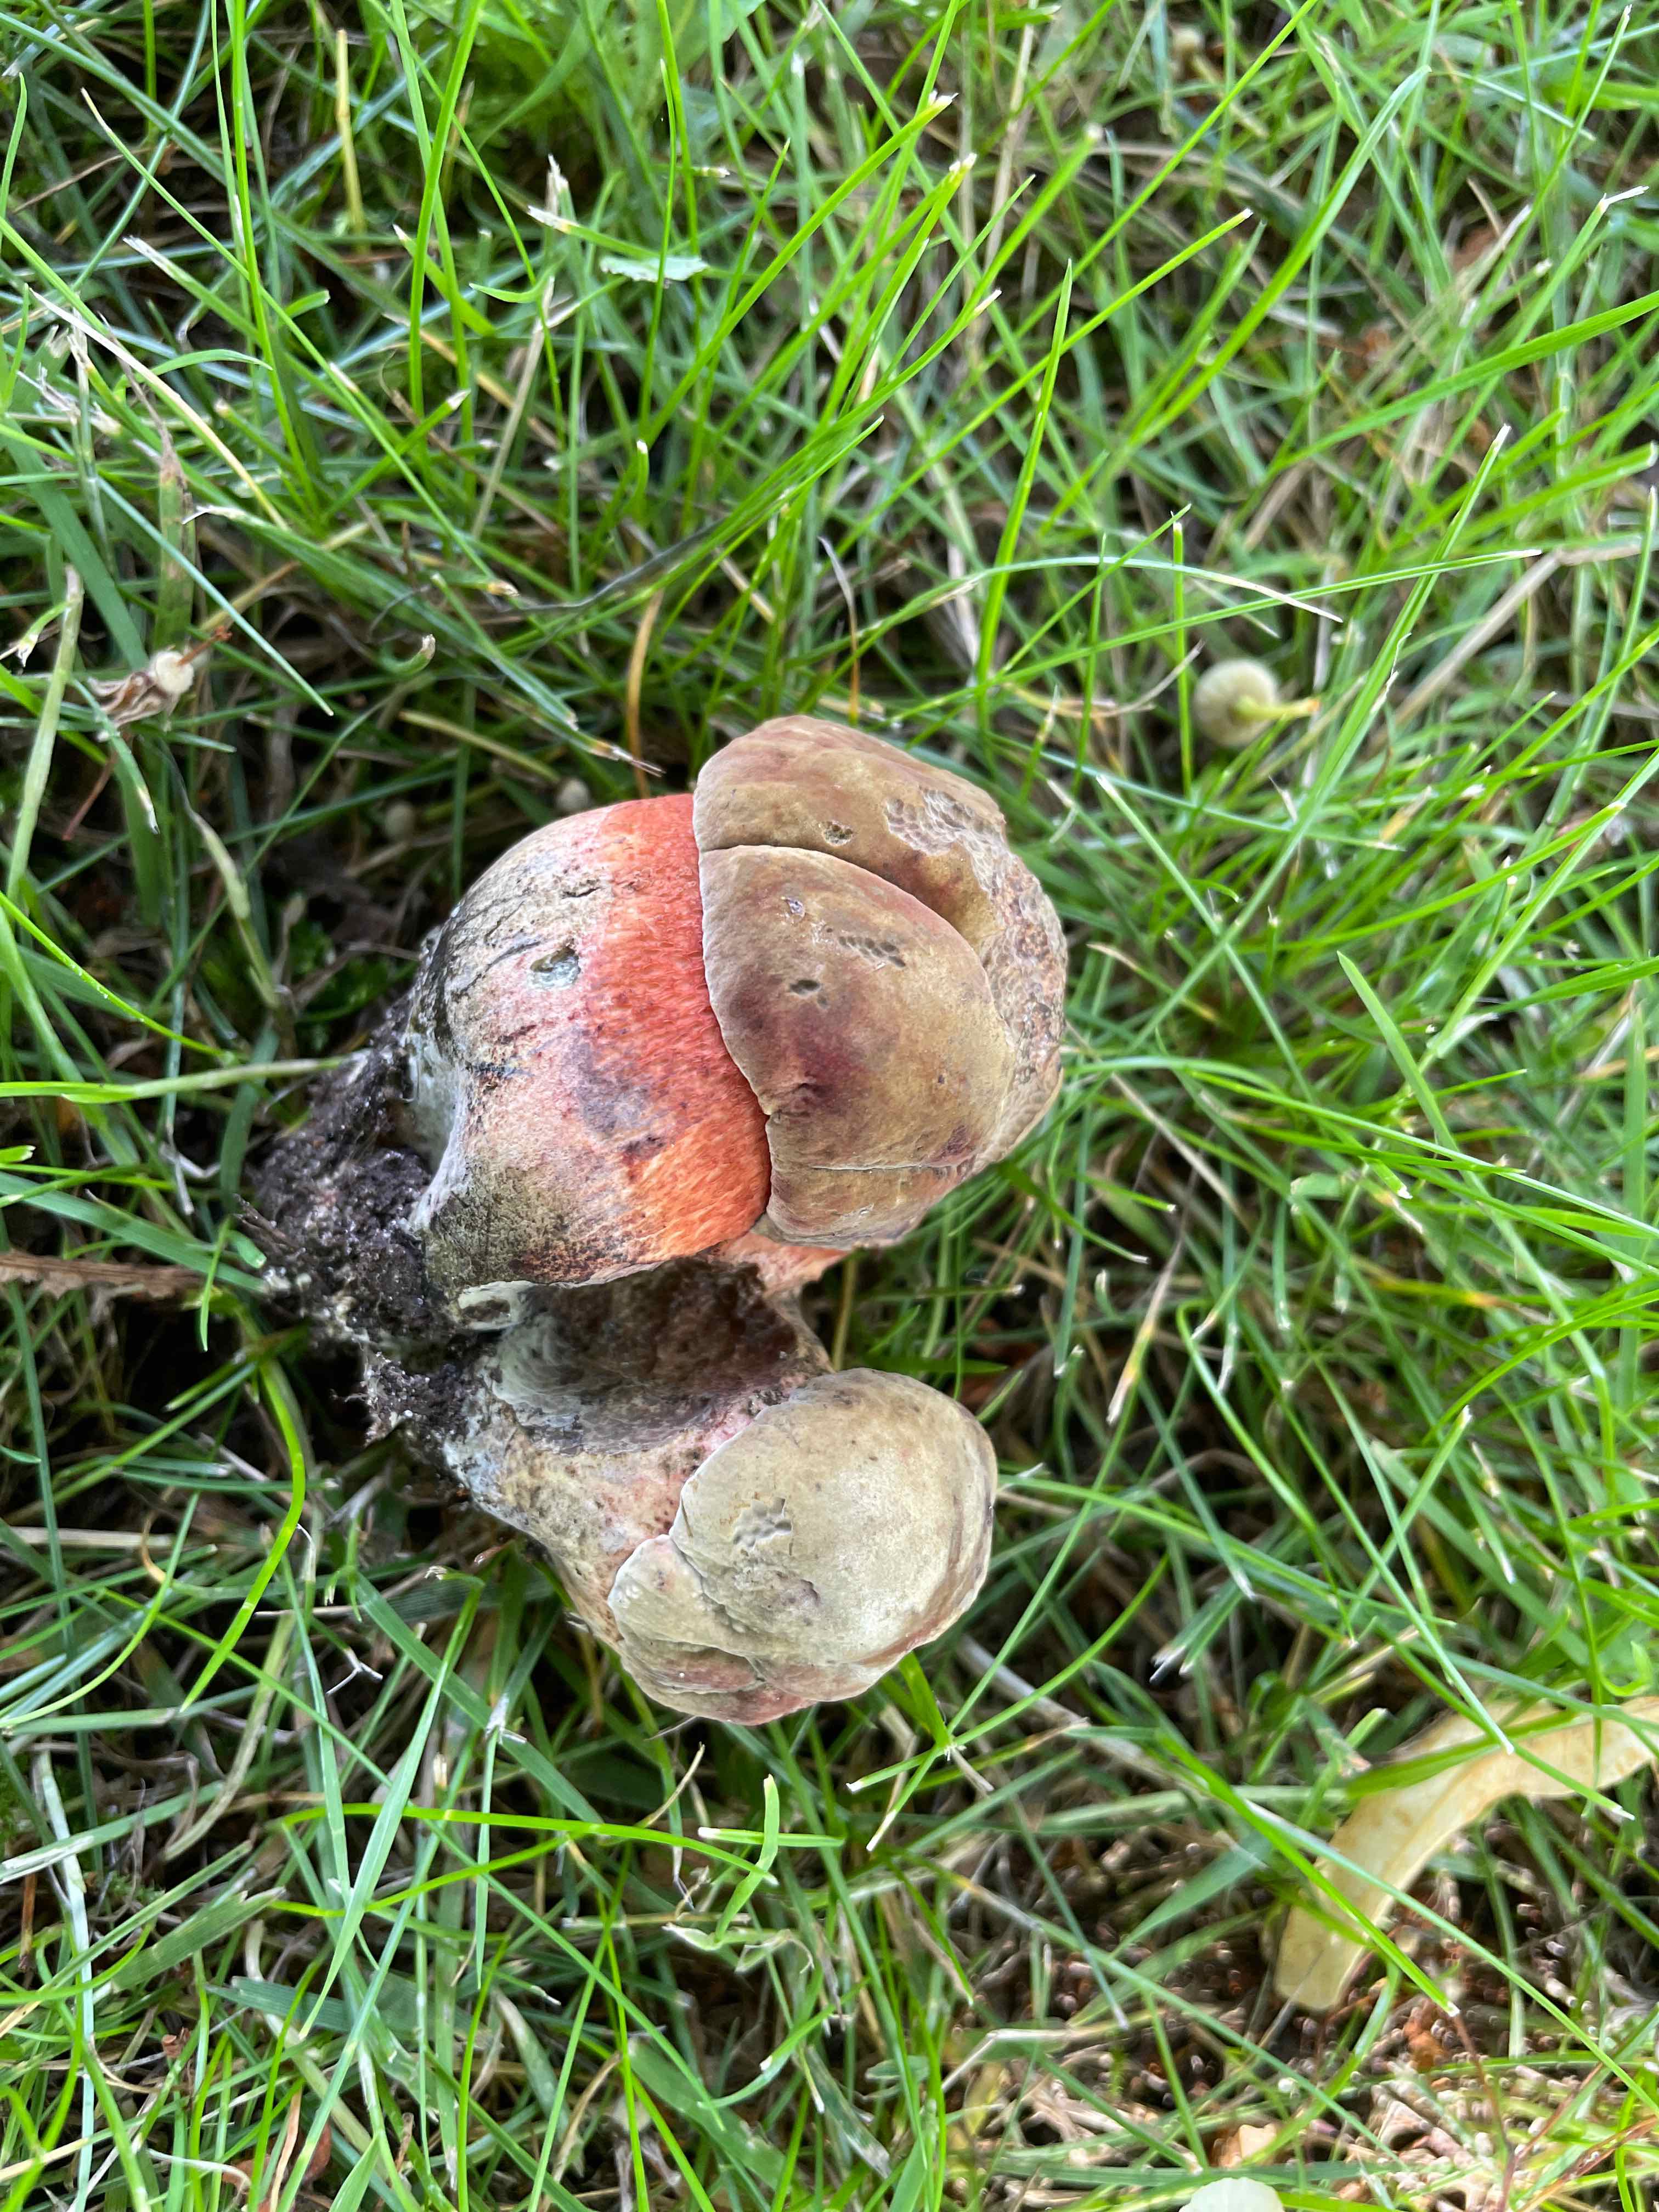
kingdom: Fungi
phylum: Basidiomycota
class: Agaricomycetes
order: Boletales
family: Boletaceae
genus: Suillellus
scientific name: Suillellus luridus
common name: netstokket indigorørhat
